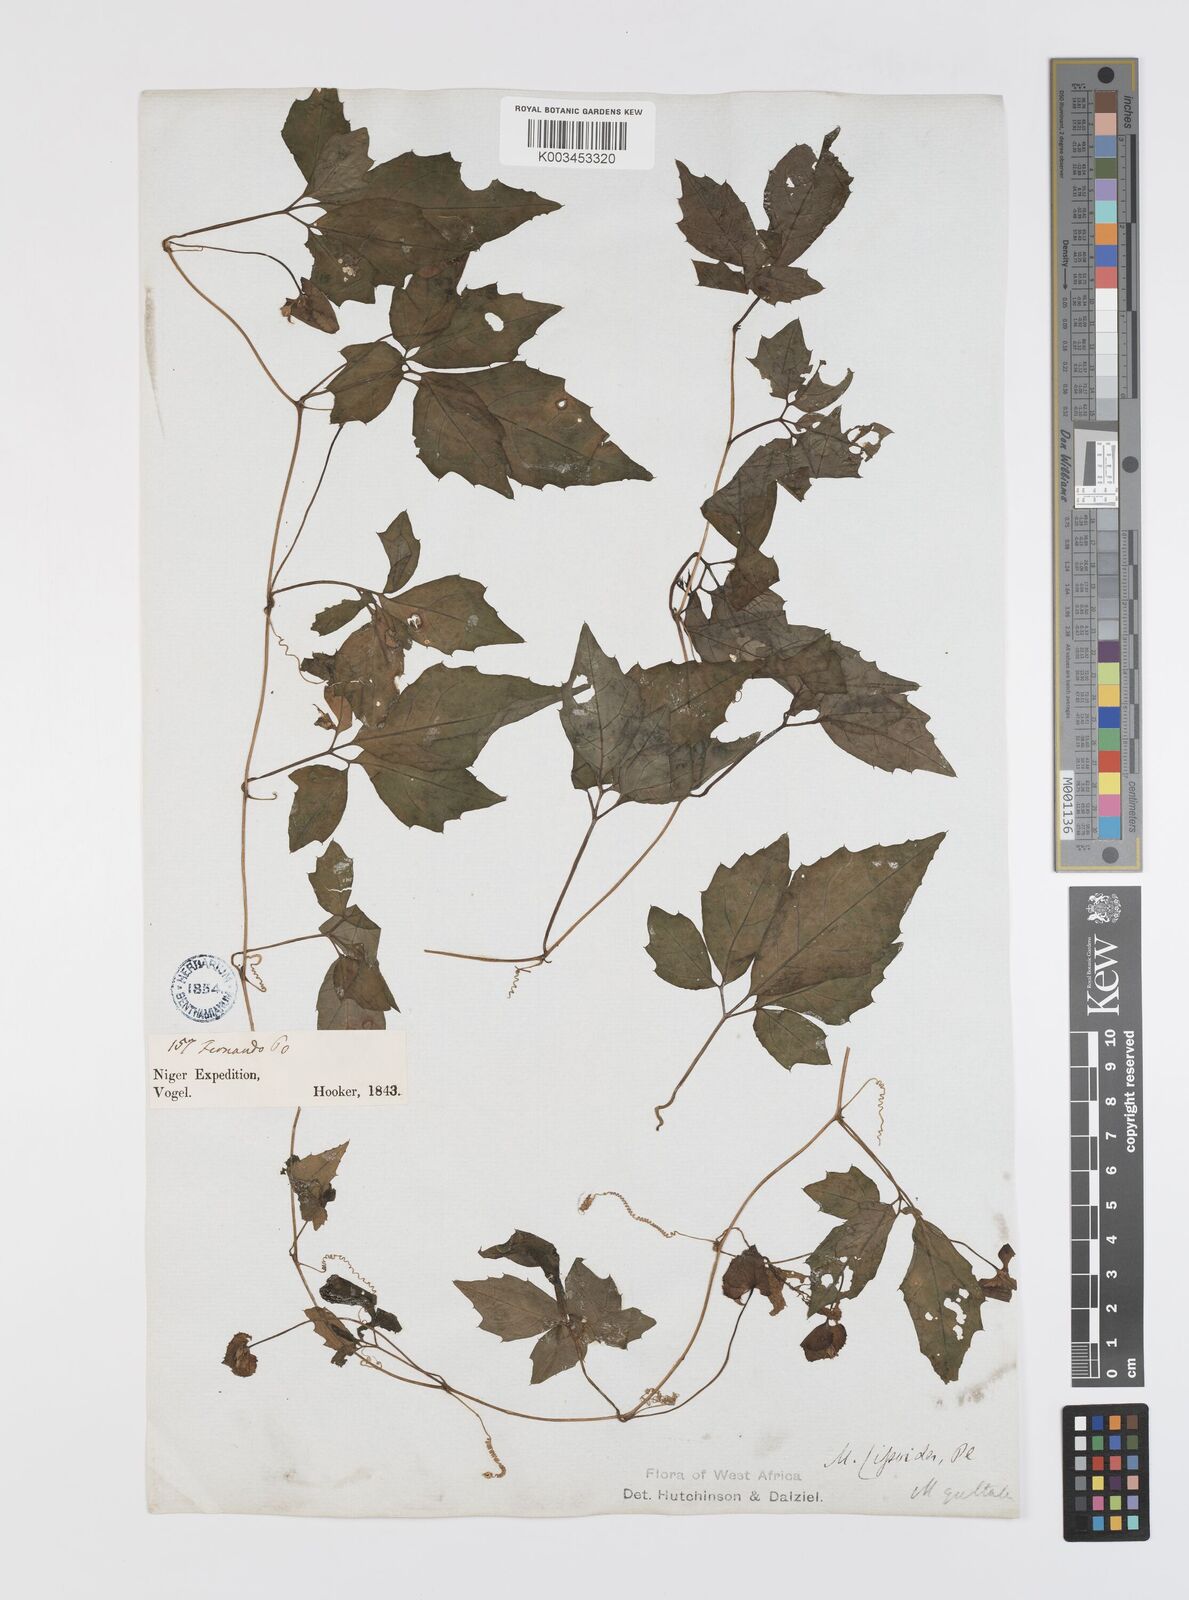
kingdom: Plantae
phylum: Tracheophyta
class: Magnoliopsida
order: Cucurbitales
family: Cucurbitaceae
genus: Momordica
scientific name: Momordica cissoides
